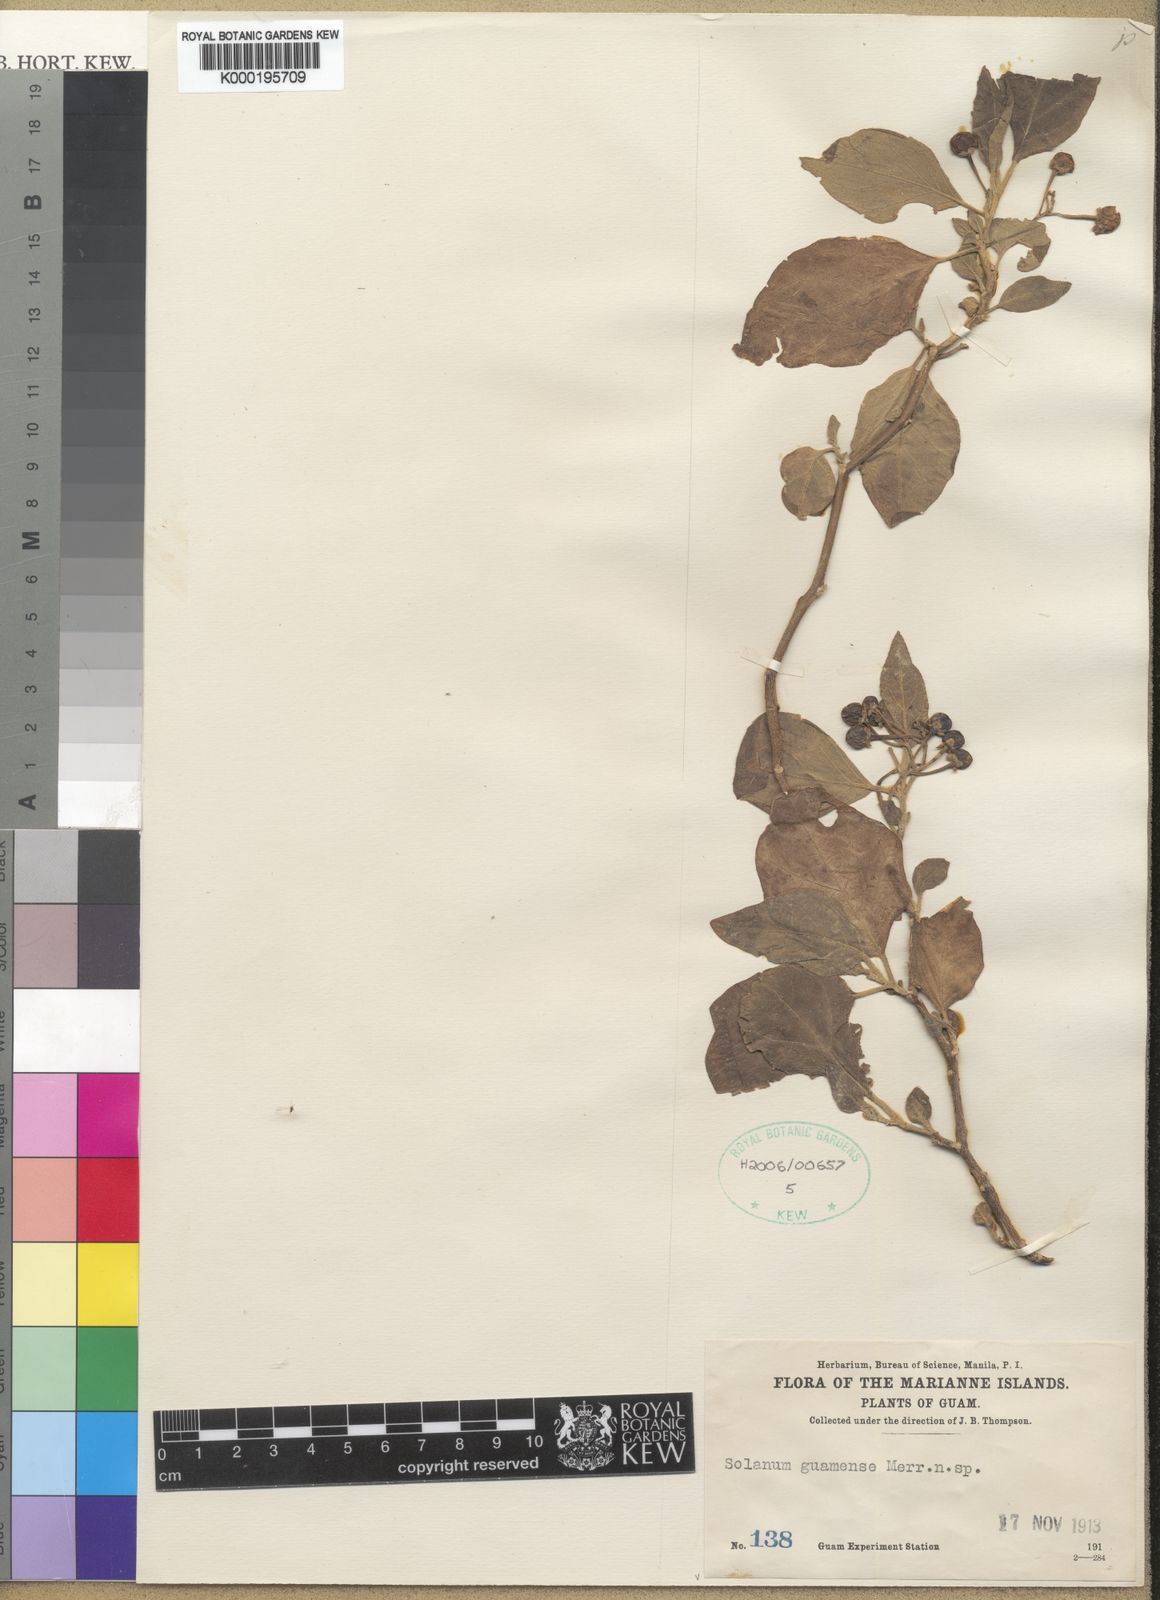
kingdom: Plantae
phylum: Tracheophyta
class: Magnoliopsida
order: Solanales
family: Solanaceae
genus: Solanum
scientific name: Solanum guamense
